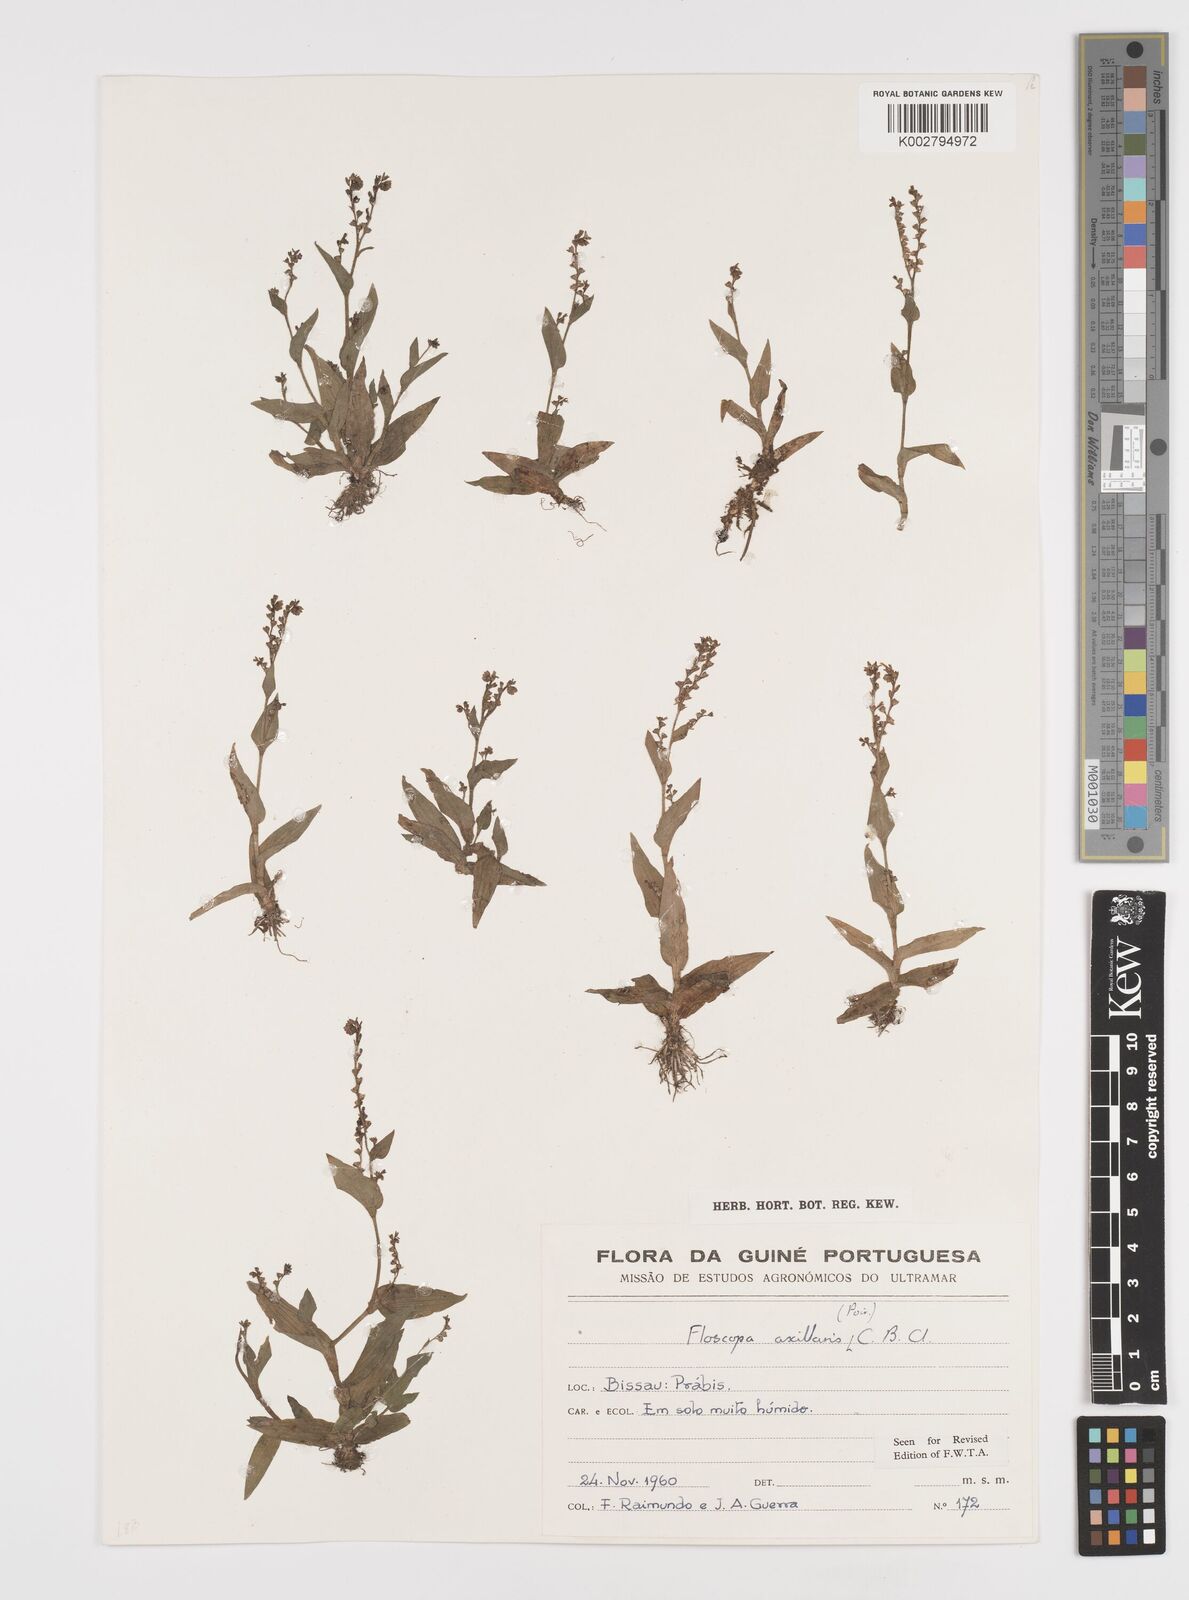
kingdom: Plantae
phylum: Tracheophyta
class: Liliopsida
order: Commelinales
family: Commelinaceae
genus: Floscopa
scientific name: Floscopa axillaris
